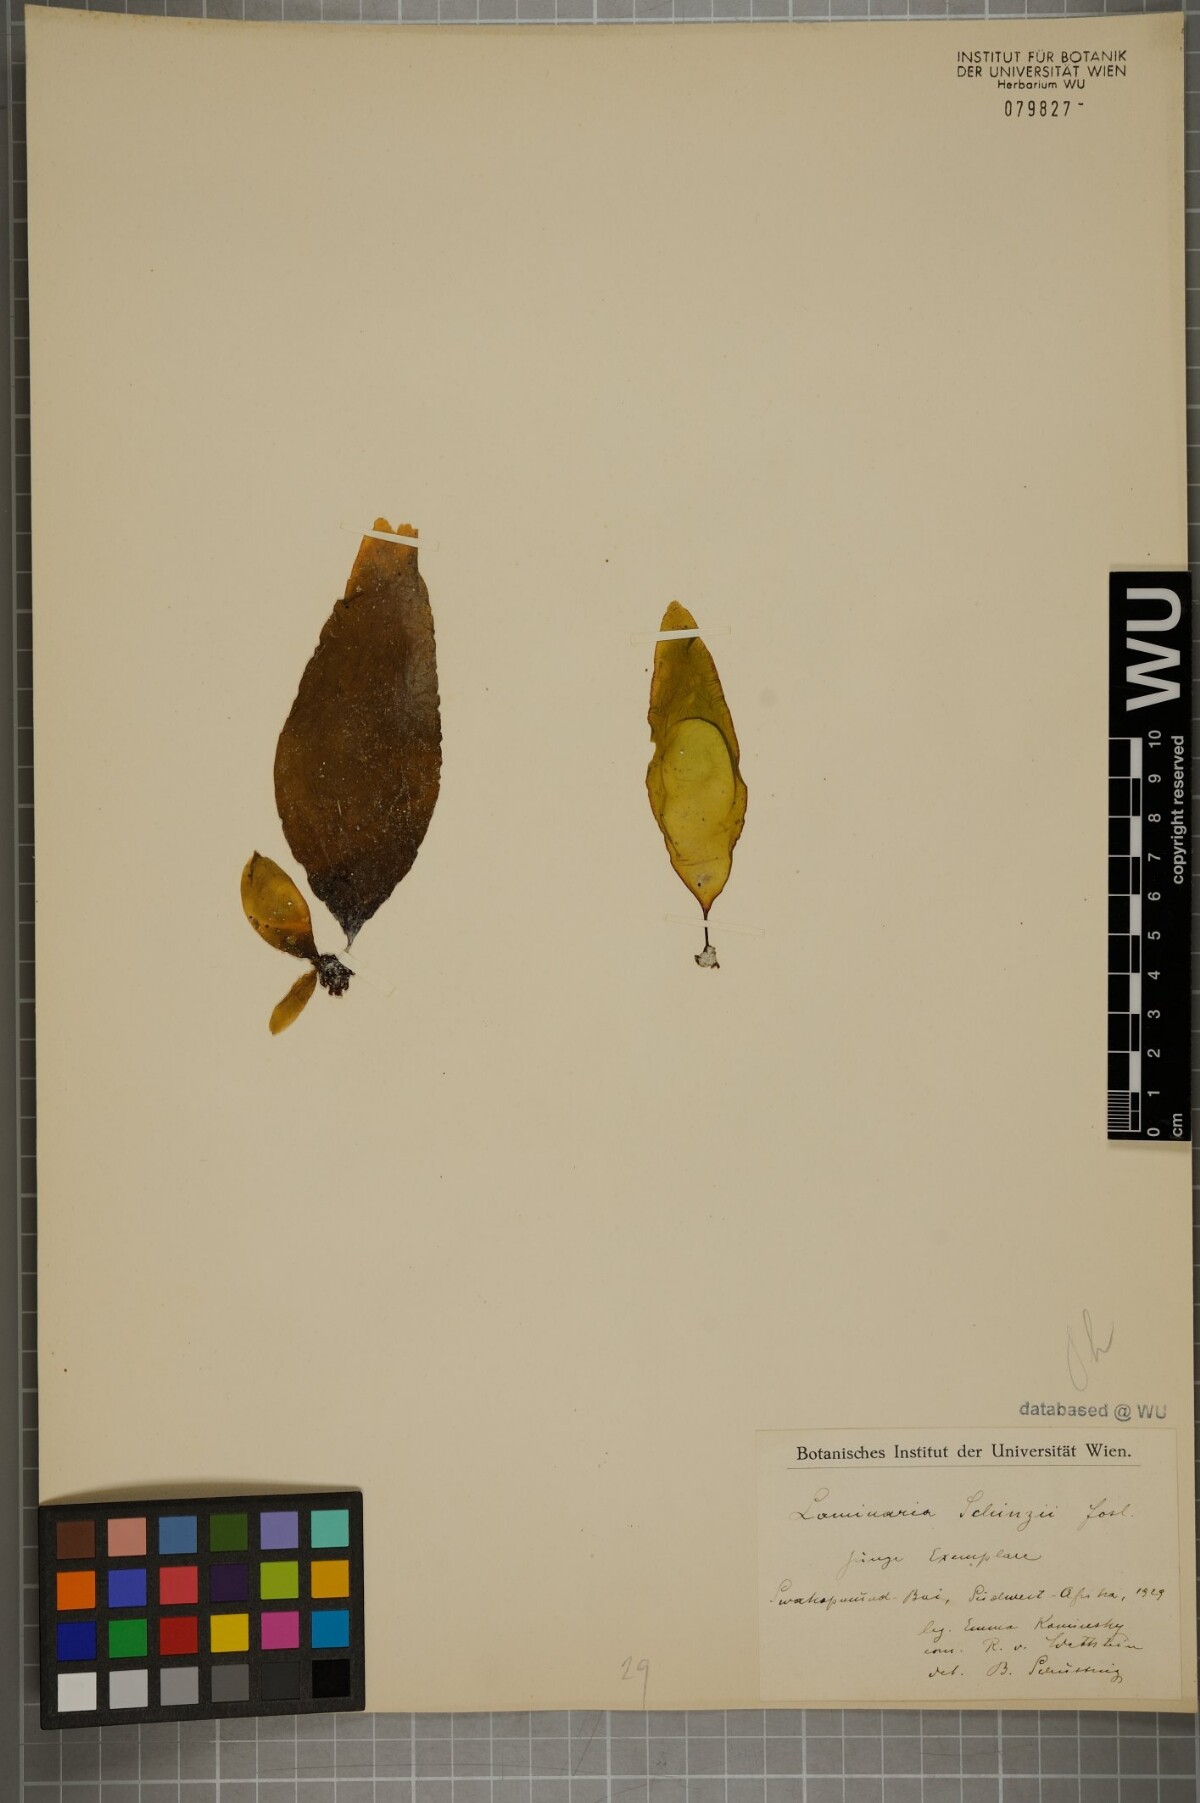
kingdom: Chromista
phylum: Ochrophyta
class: Phaeophyceae
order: Laminariales
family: Laminariaceae
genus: Laminaria
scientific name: Laminaria pallida
